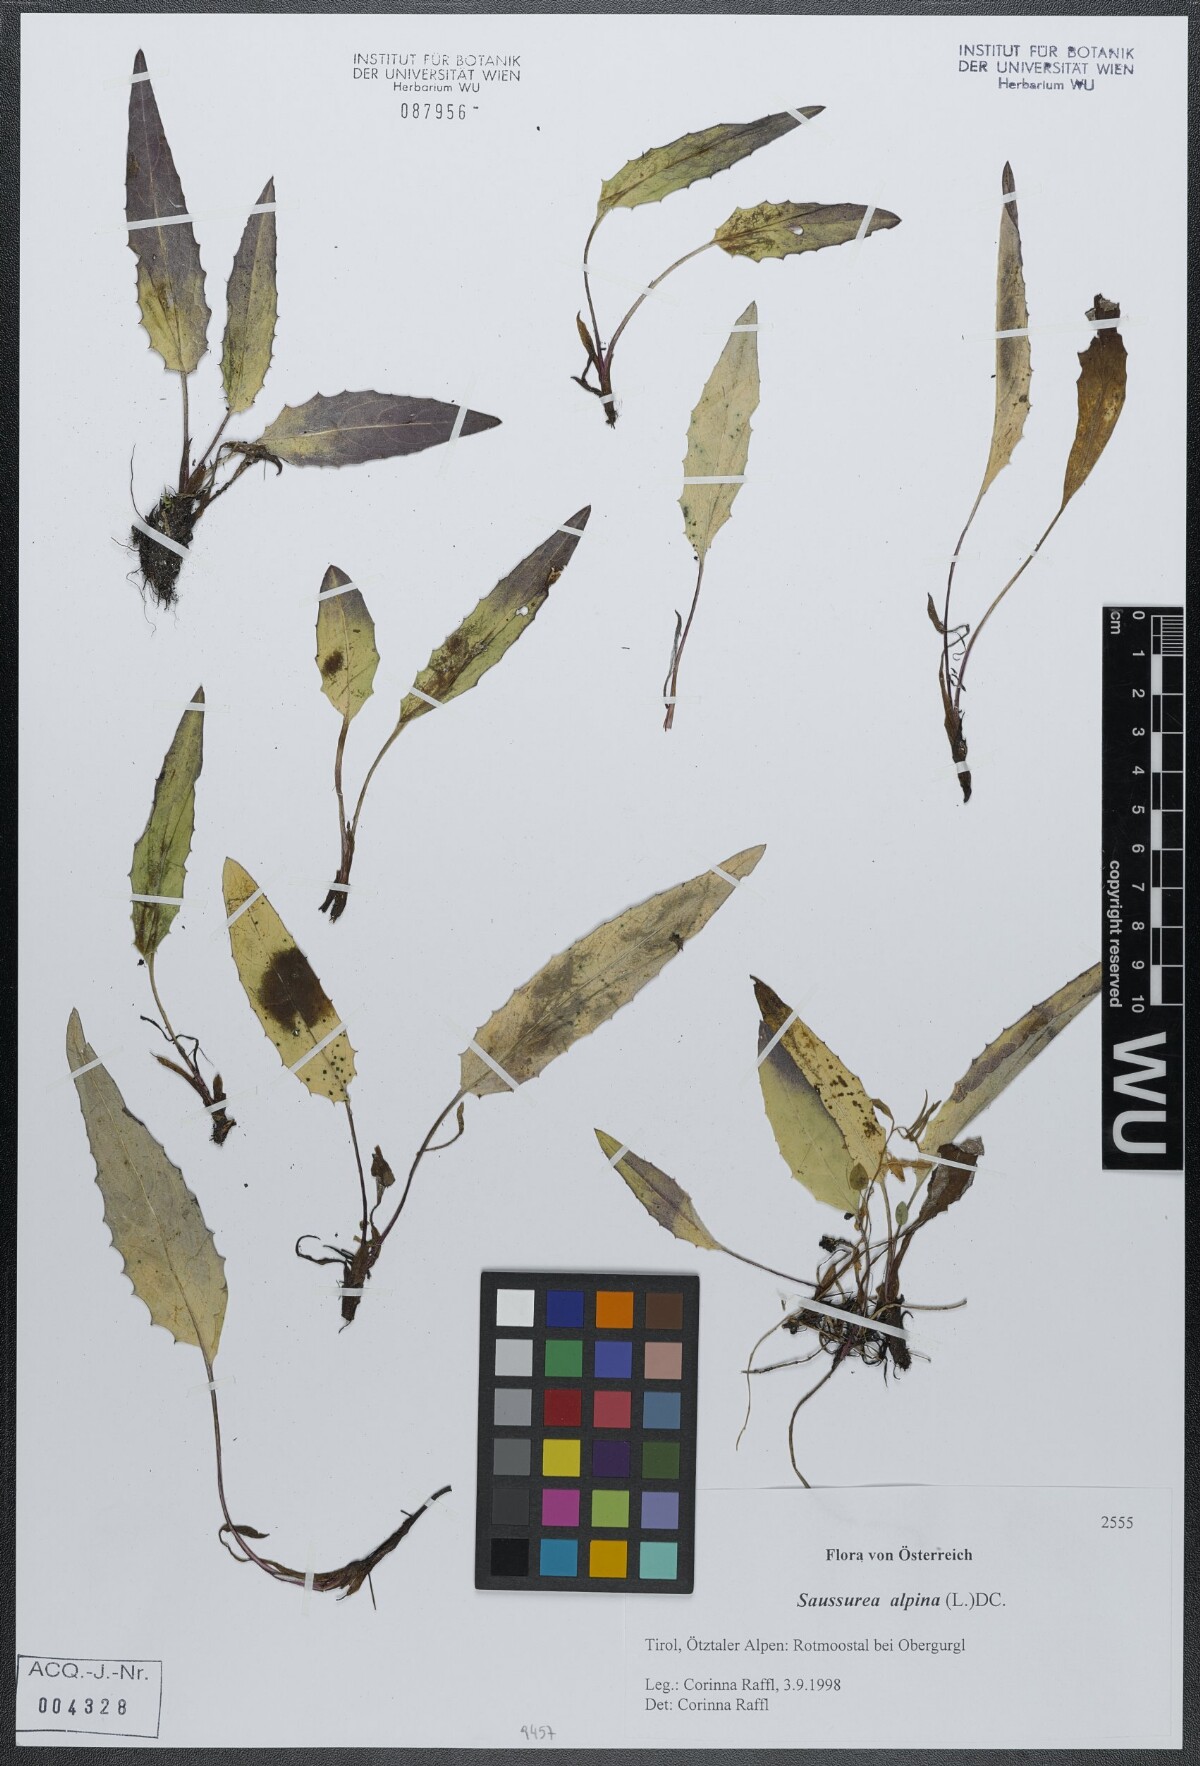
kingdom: Plantae
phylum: Tracheophyta
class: Magnoliopsida
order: Asterales
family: Asteraceae
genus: Saussurea
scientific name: Saussurea alpina
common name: Alpine saw-wort
